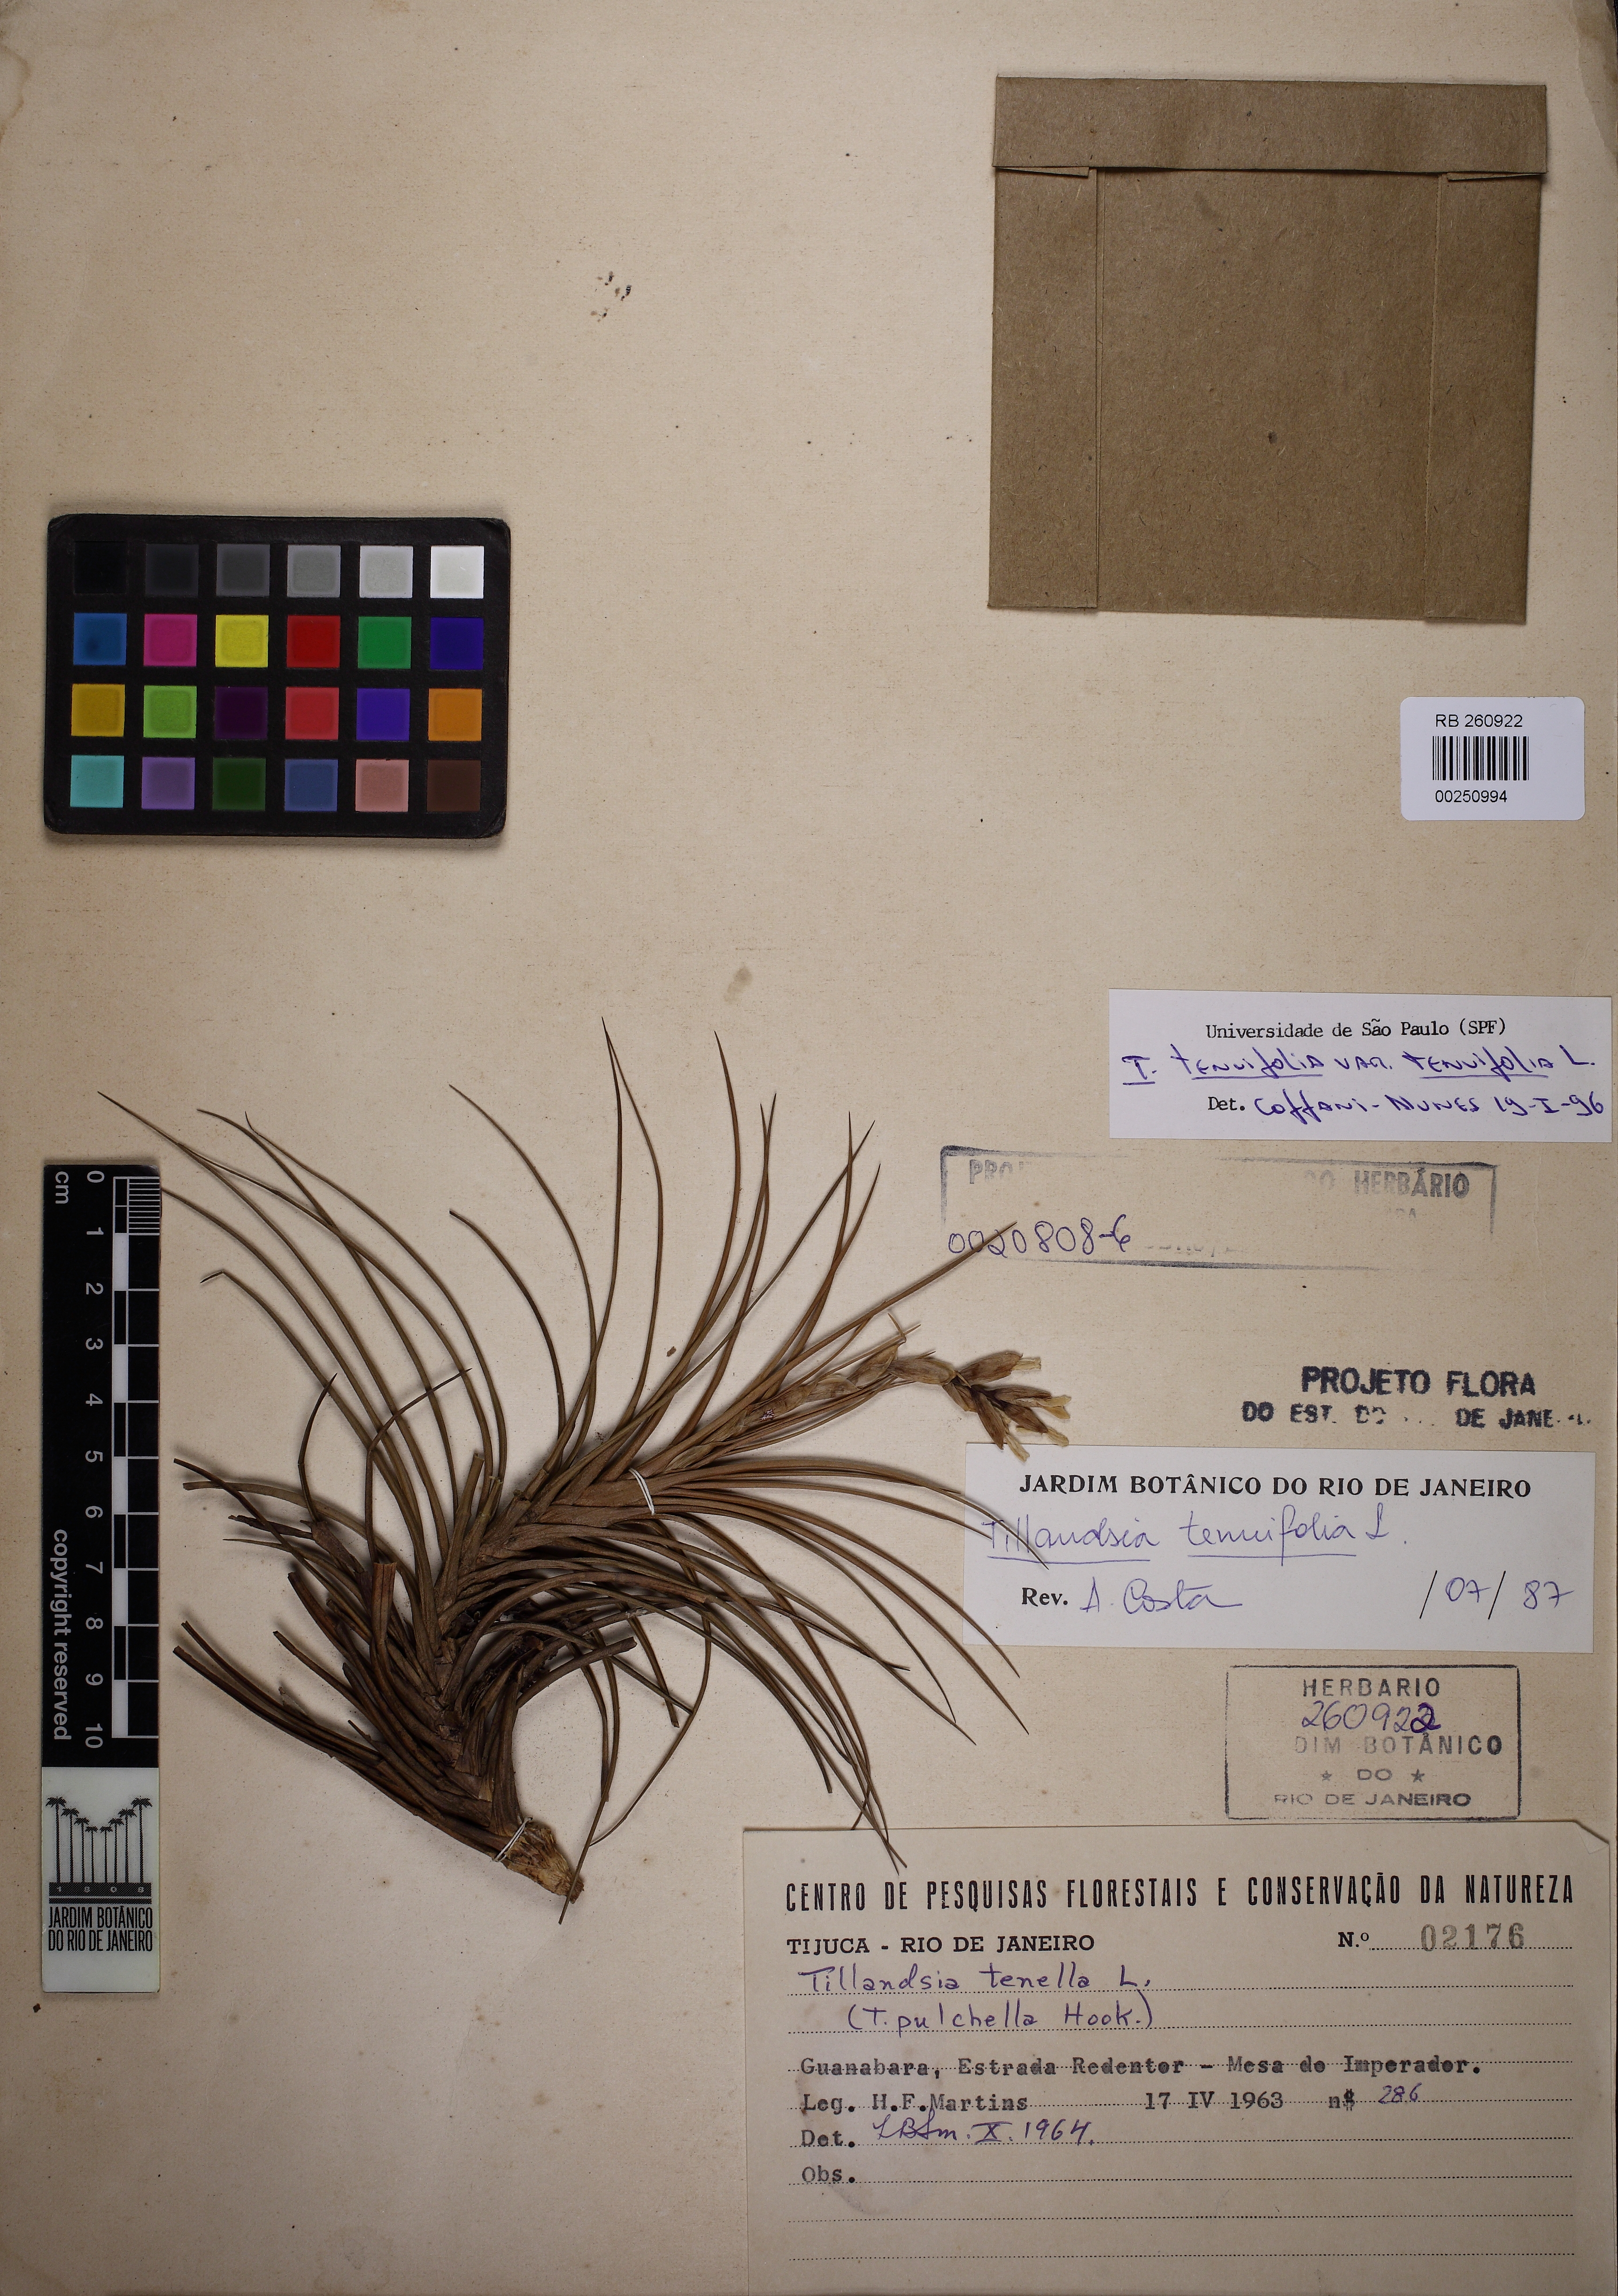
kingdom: Plantae
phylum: Tracheophyta
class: Liliopsida
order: Poales
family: Bromeliaceae
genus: Tillandsia
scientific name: Tillandsia tenuifolia
